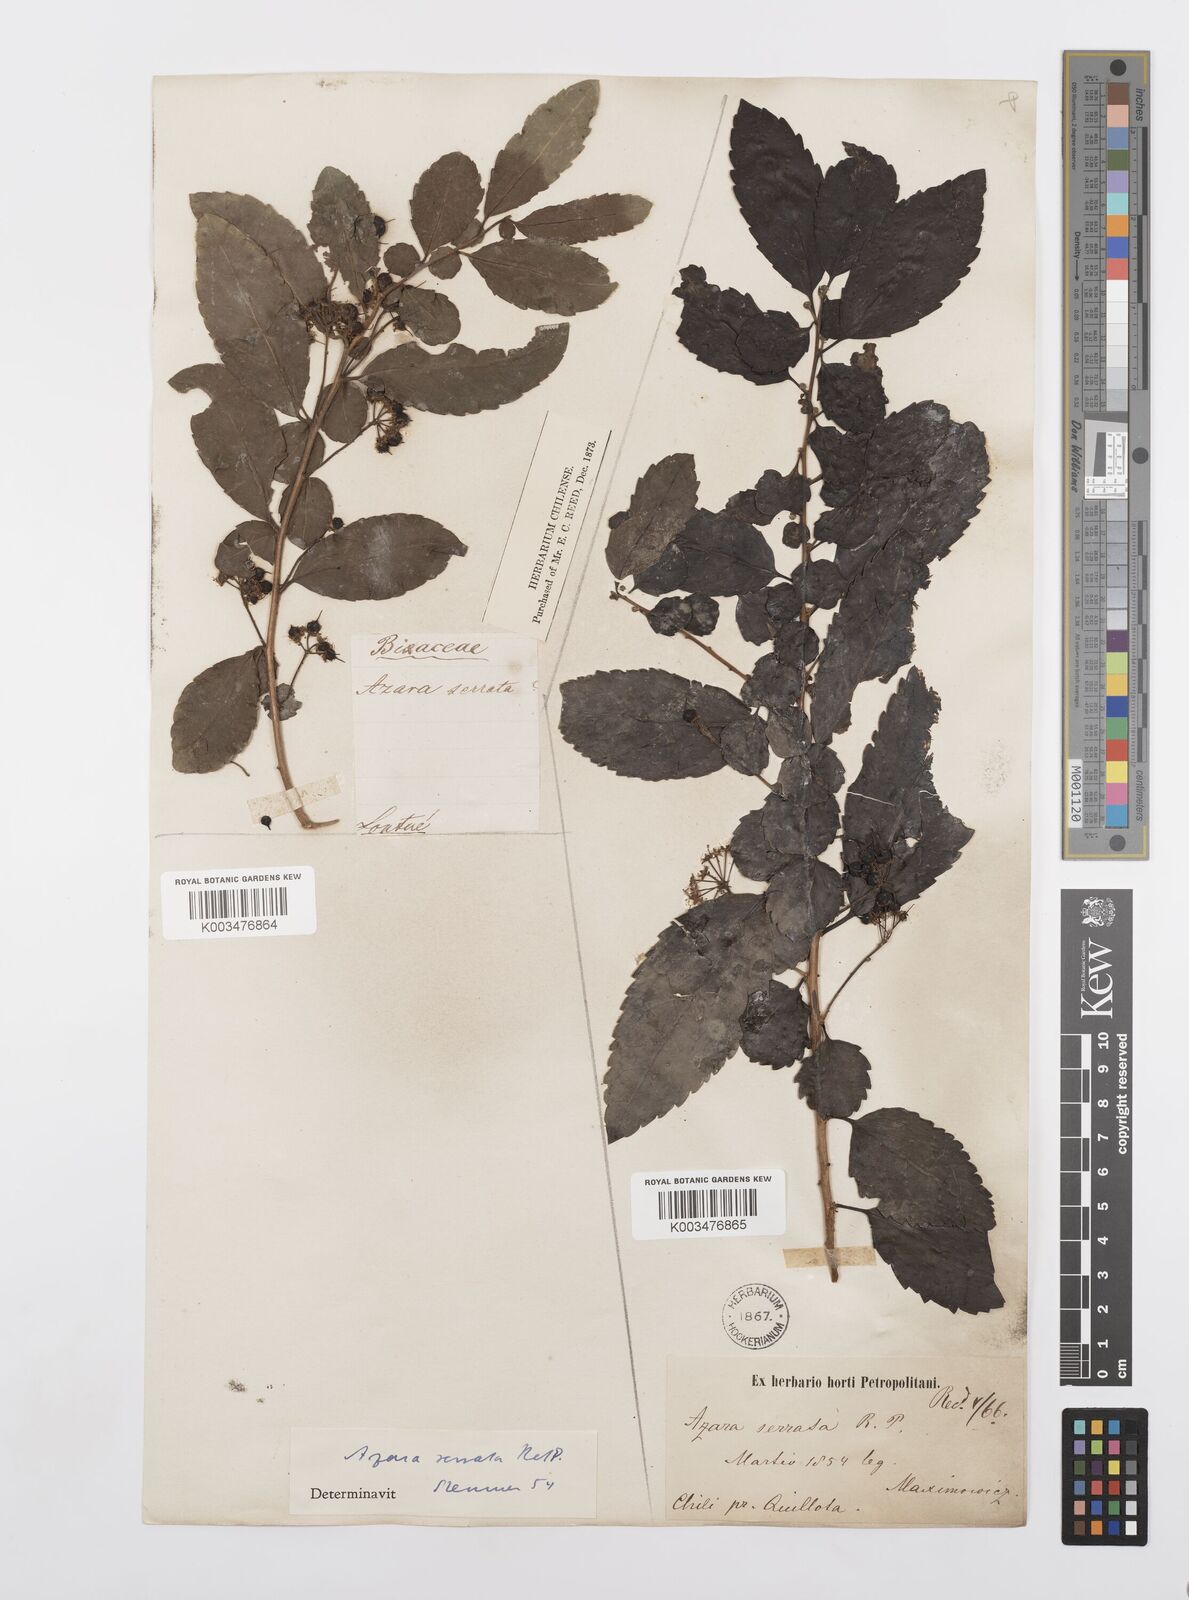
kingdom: Plantae
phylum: Tracheophyta
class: Magnoliopsida
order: Malpighiales
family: Salicaceae
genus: Azara
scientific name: Azara serrata
